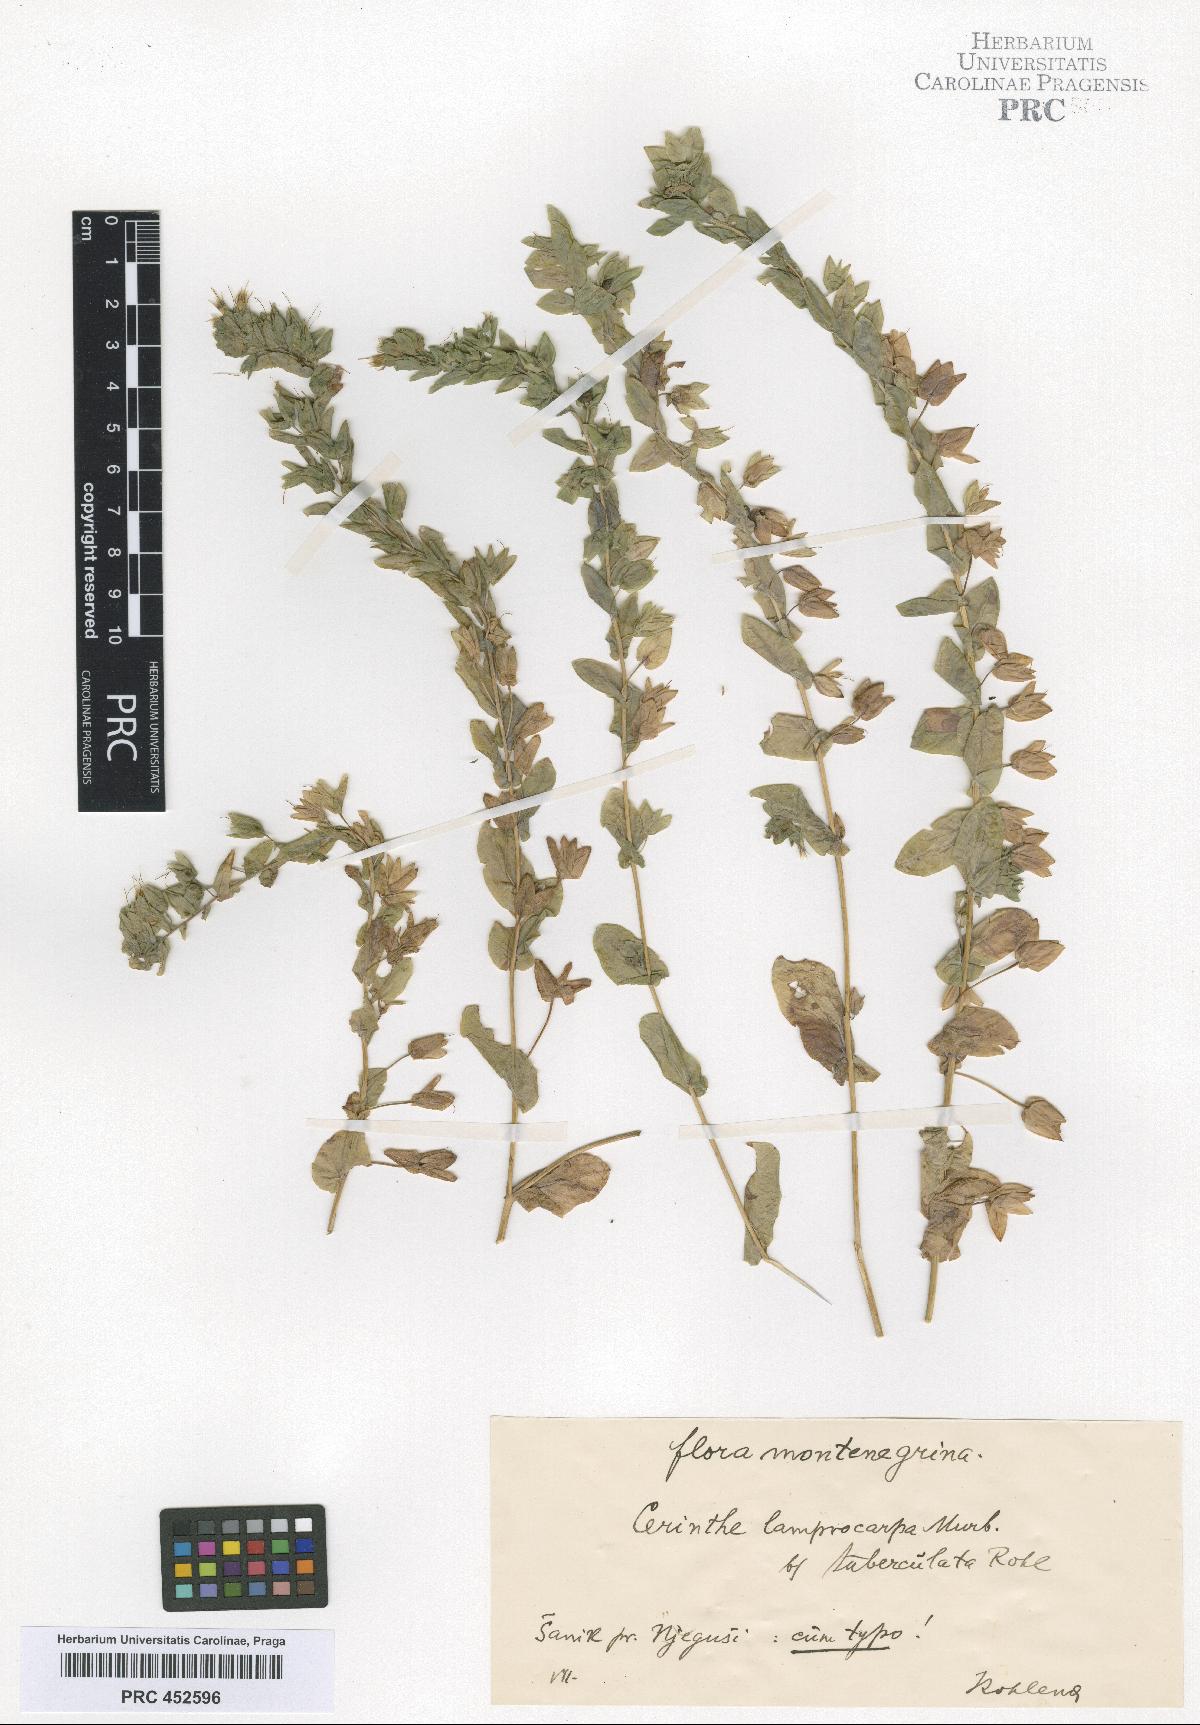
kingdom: Plantae
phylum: Tracheophyta
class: Magnoliopsida
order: Boraginales
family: Boraginaceae
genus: Cerinthe
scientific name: Cerinthe minor
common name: Lesser honeywort
